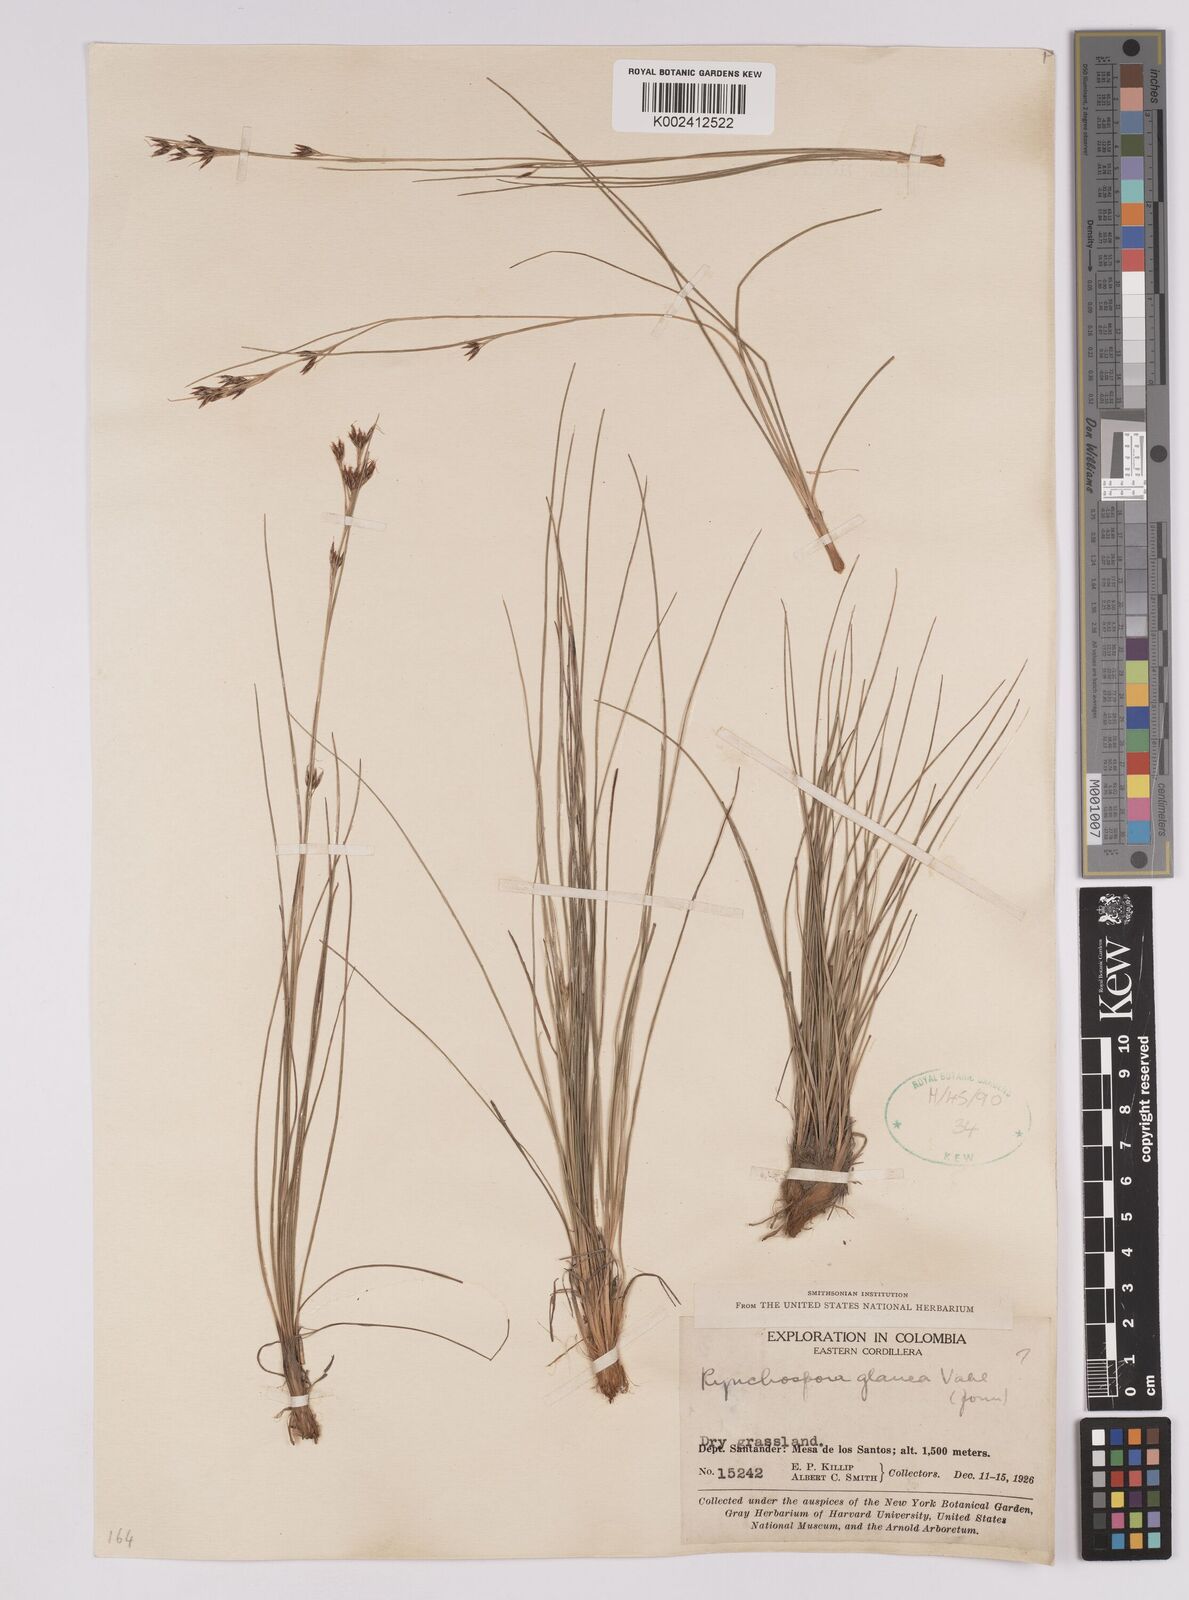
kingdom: Plantae
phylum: Tracheophyta
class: Liliopsida
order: Poales
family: Cyperaceae
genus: Rhynchospora
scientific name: Rhynchospora rugosa
